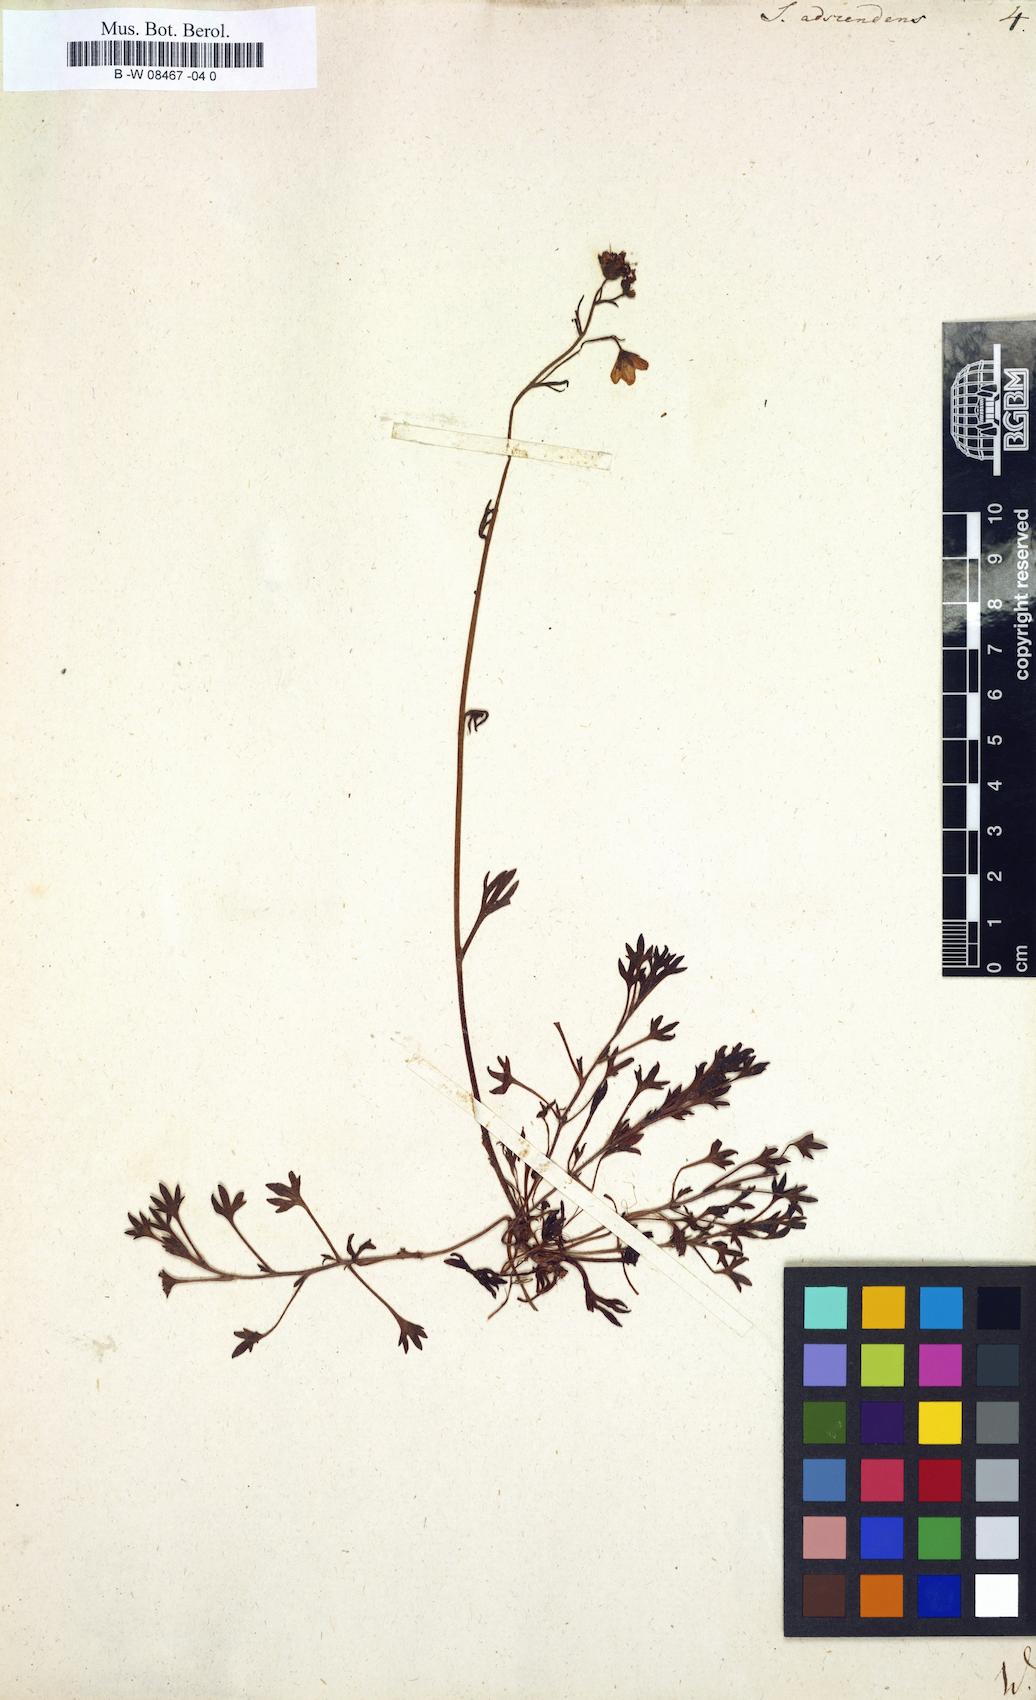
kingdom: Plantae
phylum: Tracheophyta
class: Magnoliopsida
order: Saxifragales
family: Saxifragaceae
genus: Saxifraga
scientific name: Saxifraga adscendens
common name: Ascending saxifrage
